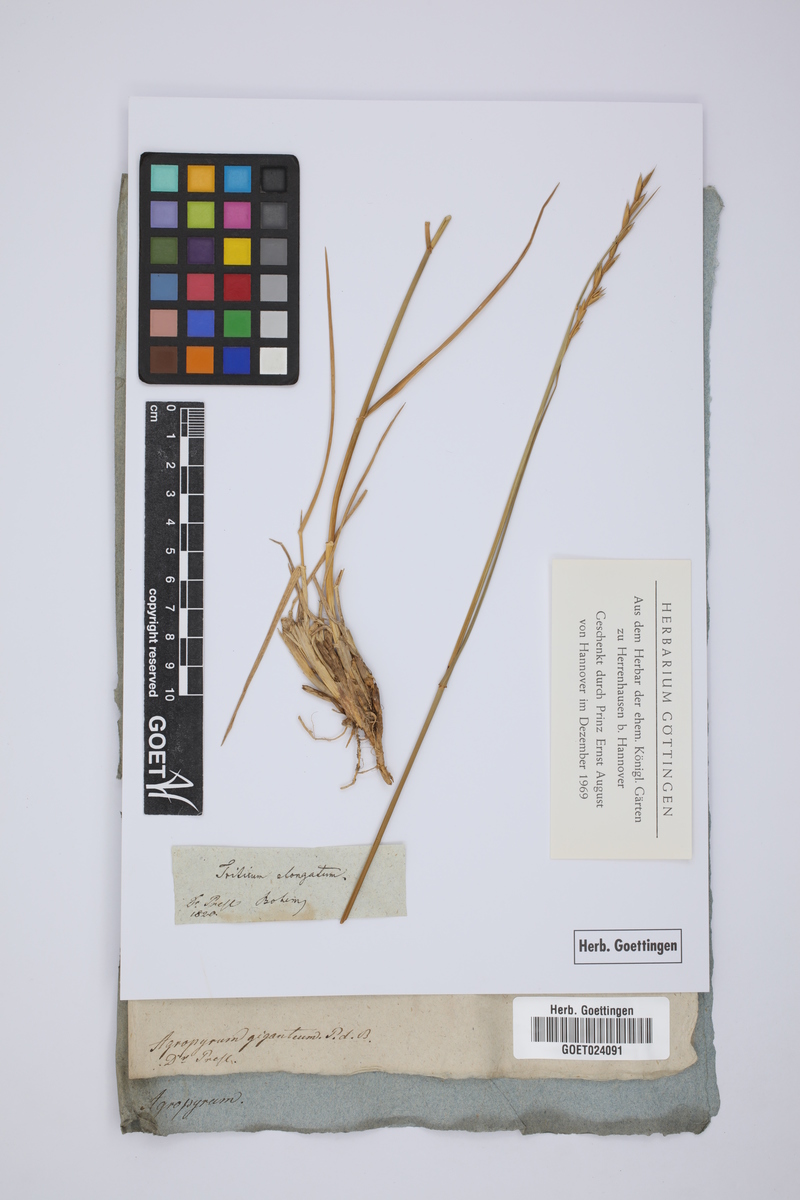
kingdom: Plantae
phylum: Tracheophyta
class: Liliopsida
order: Poales
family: Poaceae
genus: Thinopyrum
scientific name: Thinopyrum elongatum
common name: Tall wheatgrass
